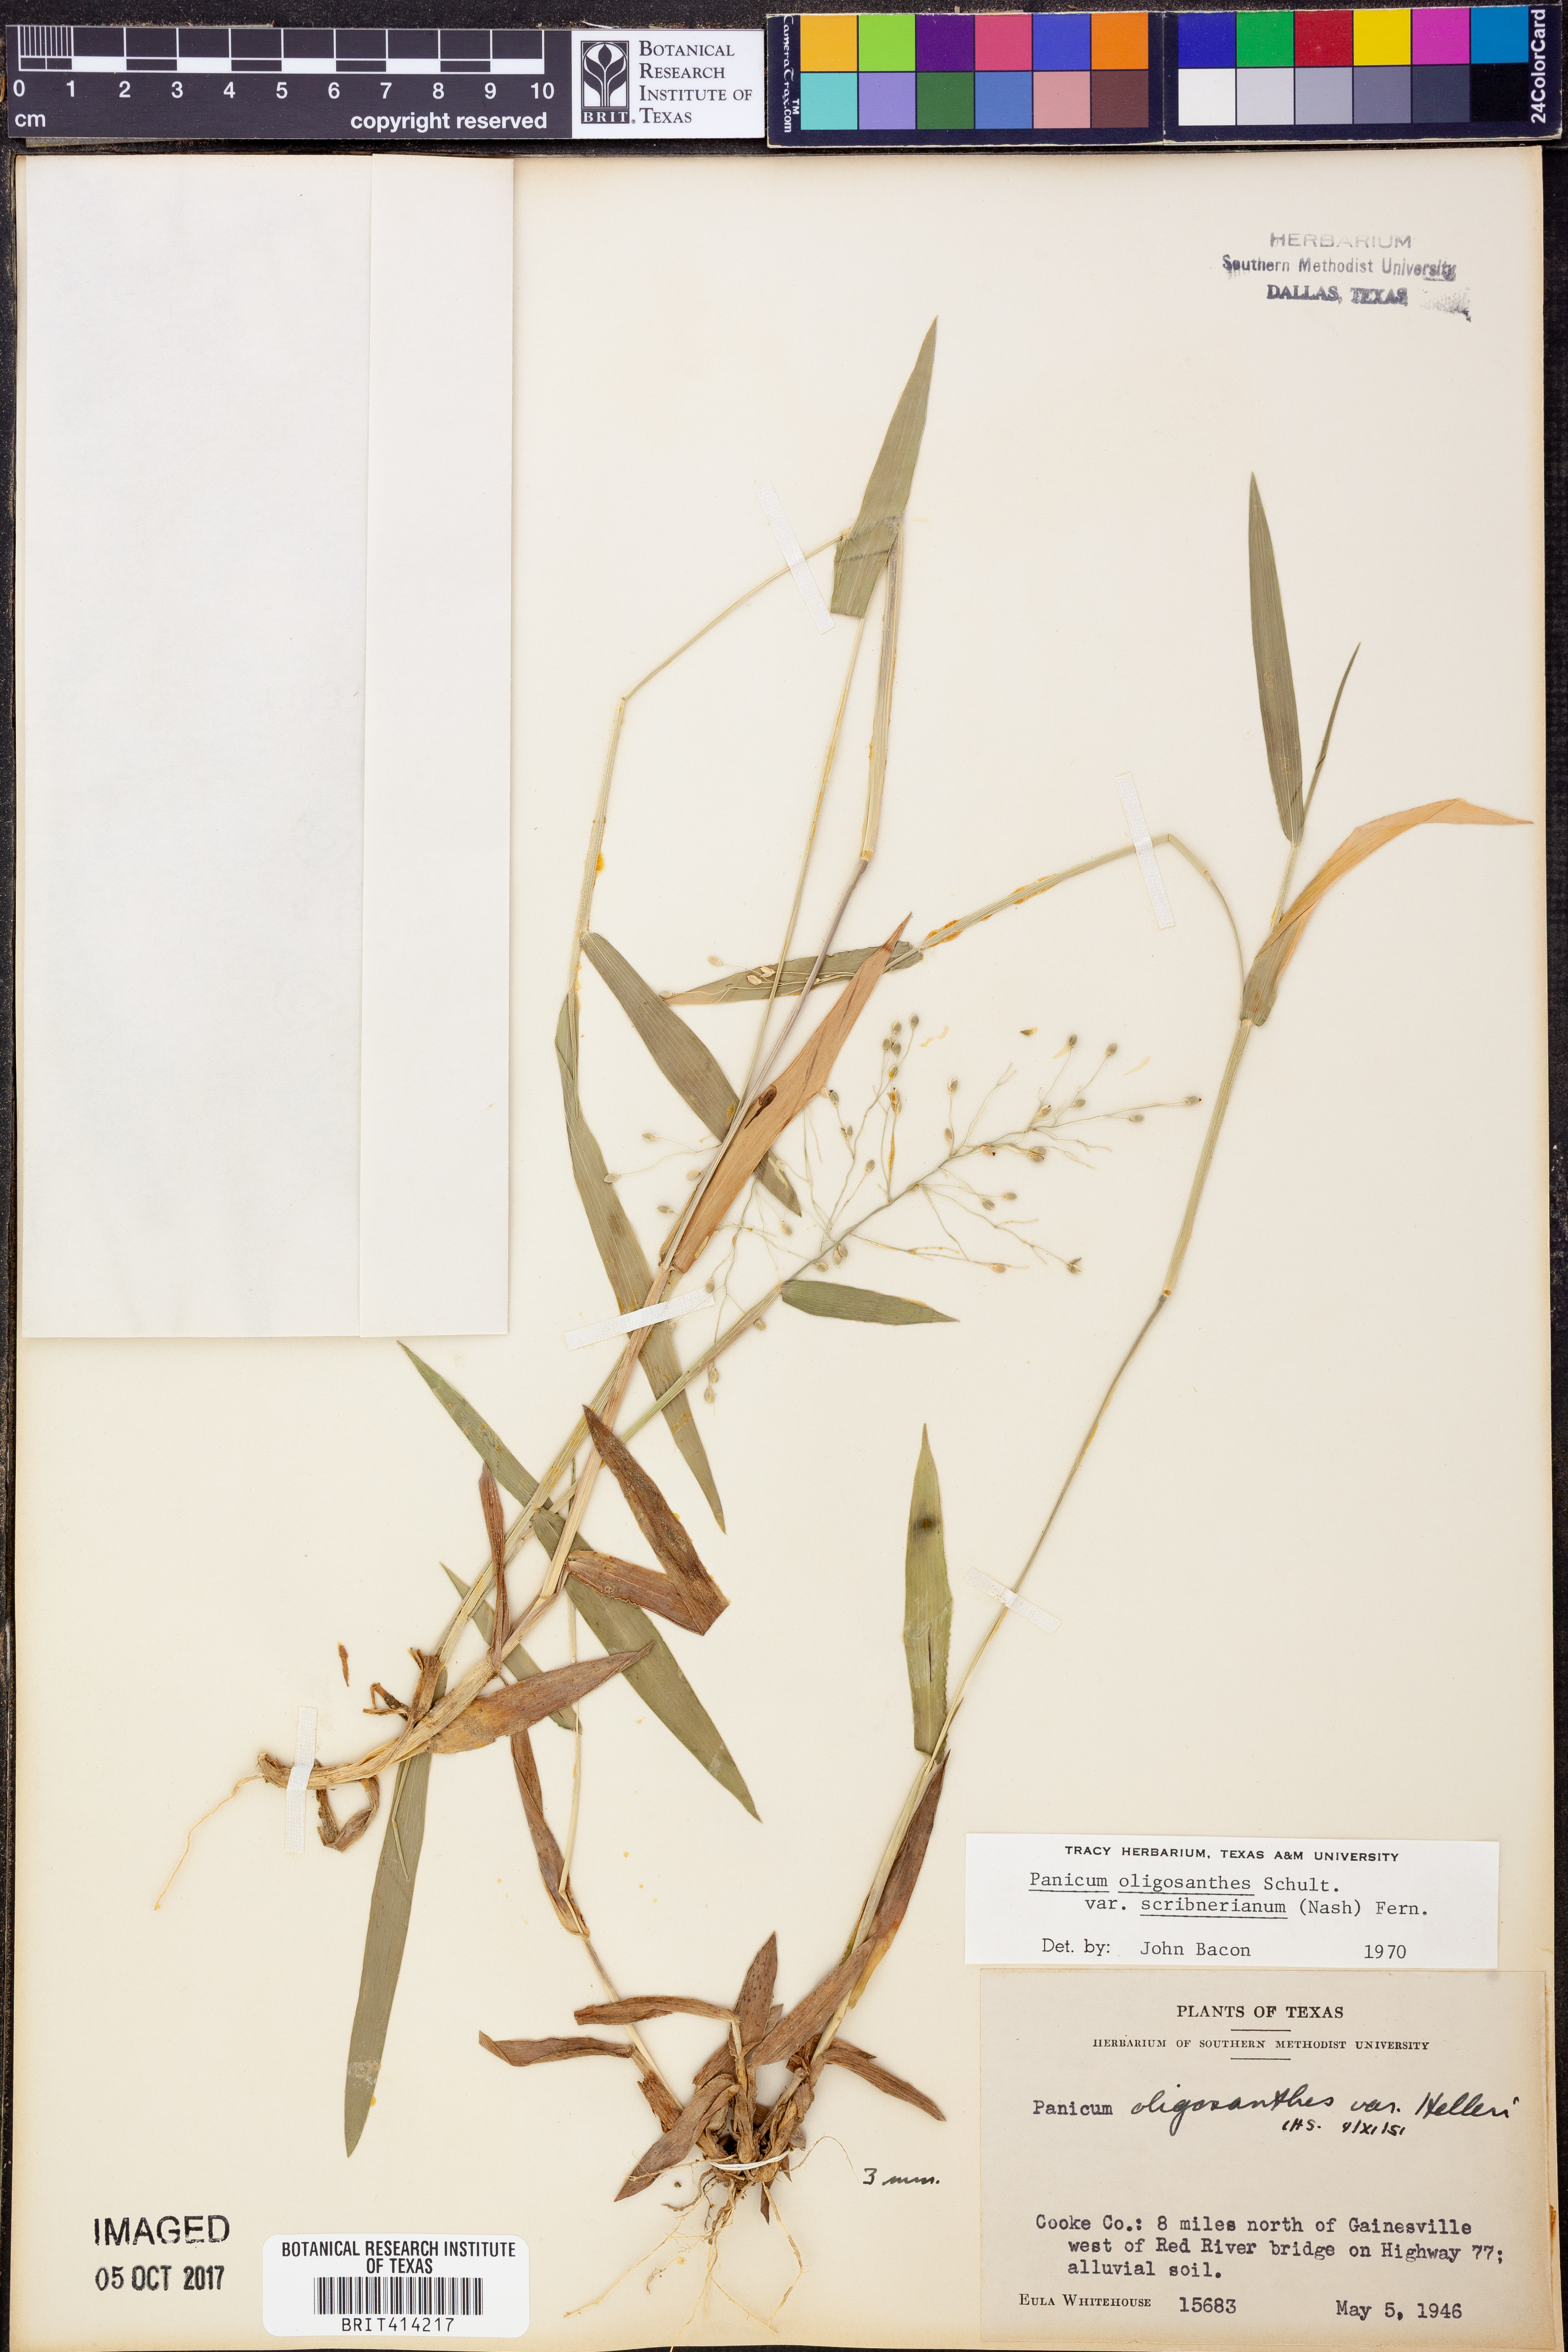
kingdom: Plantae
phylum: Tracheophyta
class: Liliopsida
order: Poales
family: Poaceae
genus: Dichanthelium
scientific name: Dichanthelium scribnerianum
